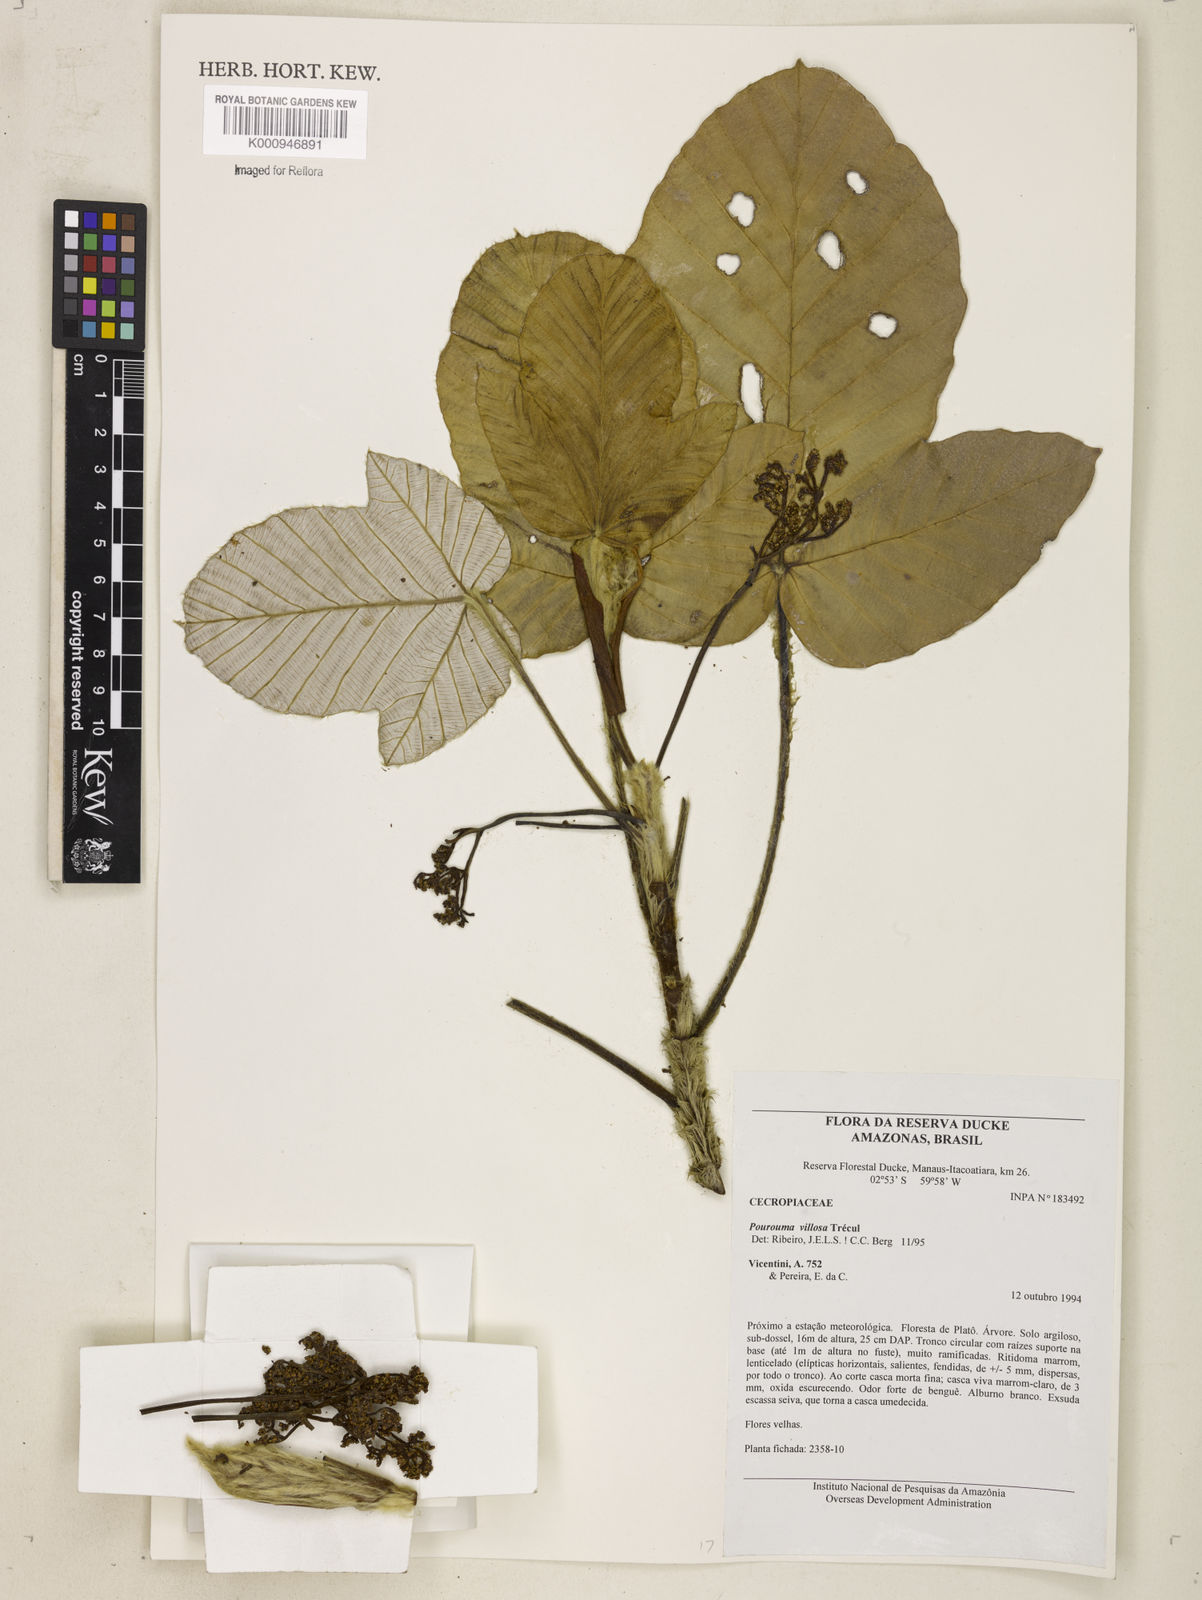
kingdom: Plantae
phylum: Tracheophyta
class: Magnoliopsida
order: Rosales
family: Urticaceae
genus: Pourouma
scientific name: Pourouma
